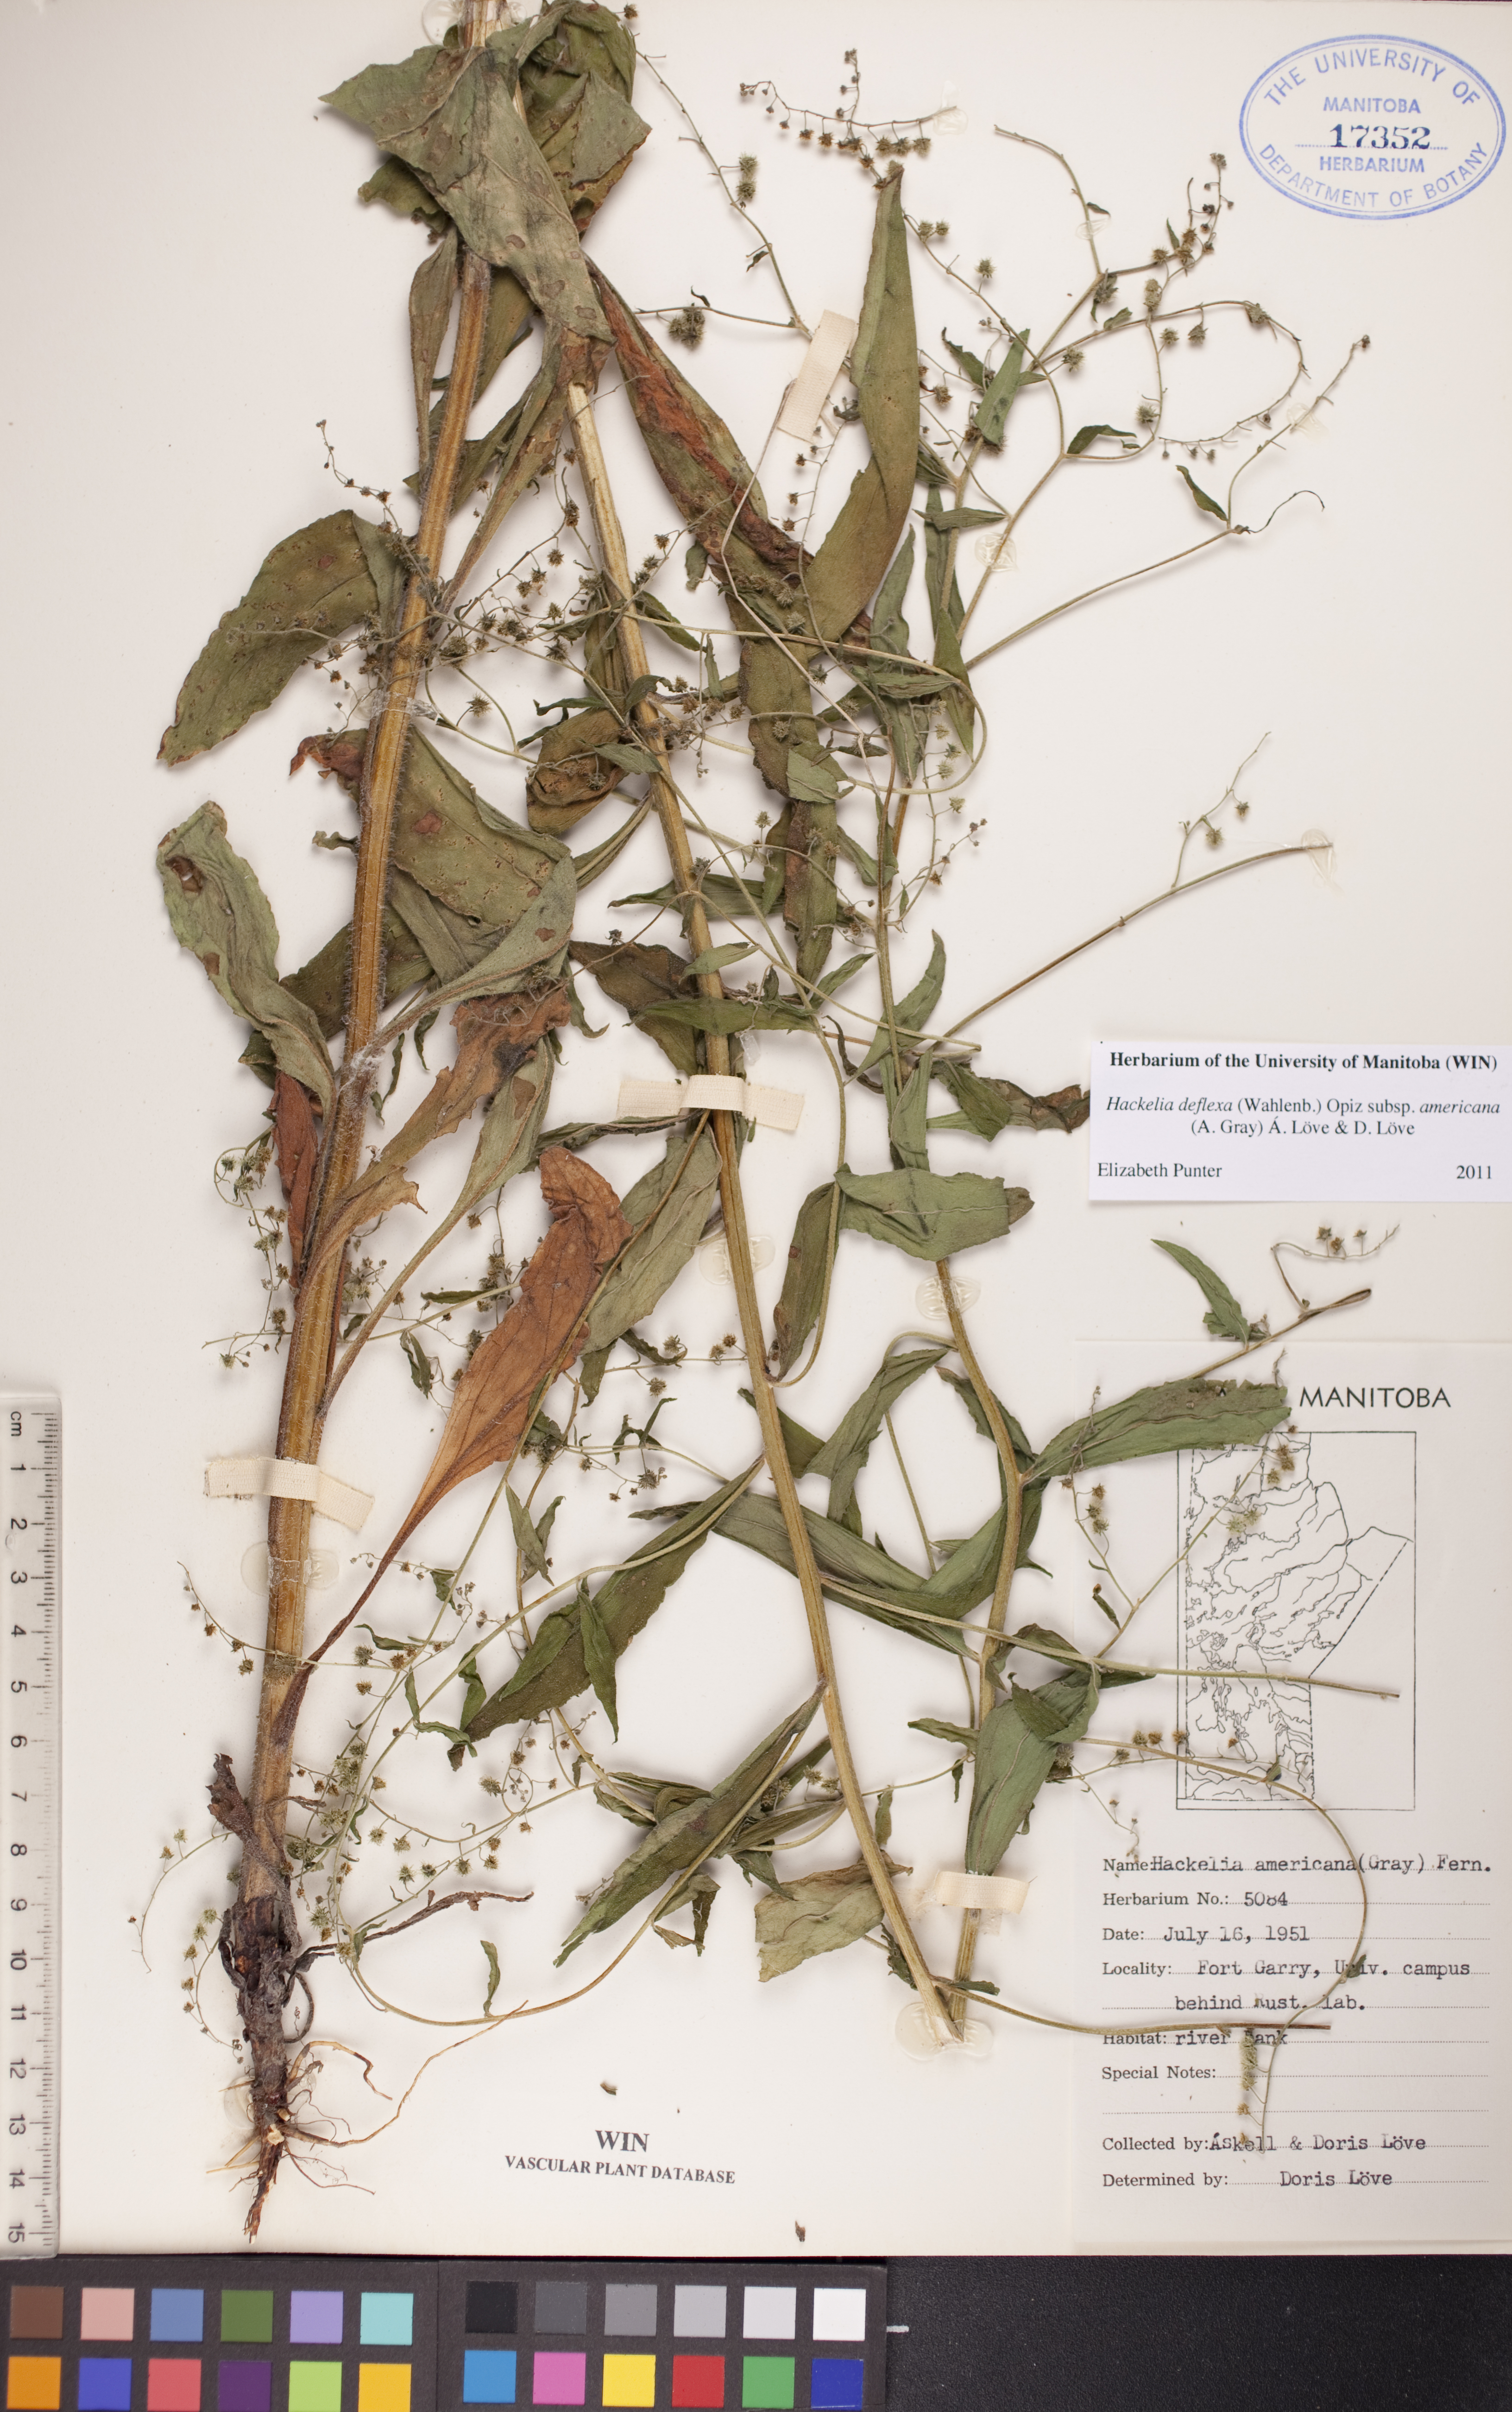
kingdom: Plantae
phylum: Tracheophyta
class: Magnoliopsida
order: Boraginales
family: Boraginaceae
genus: Hackelia
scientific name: Hackelia deflexa
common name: Nodding stickseed
